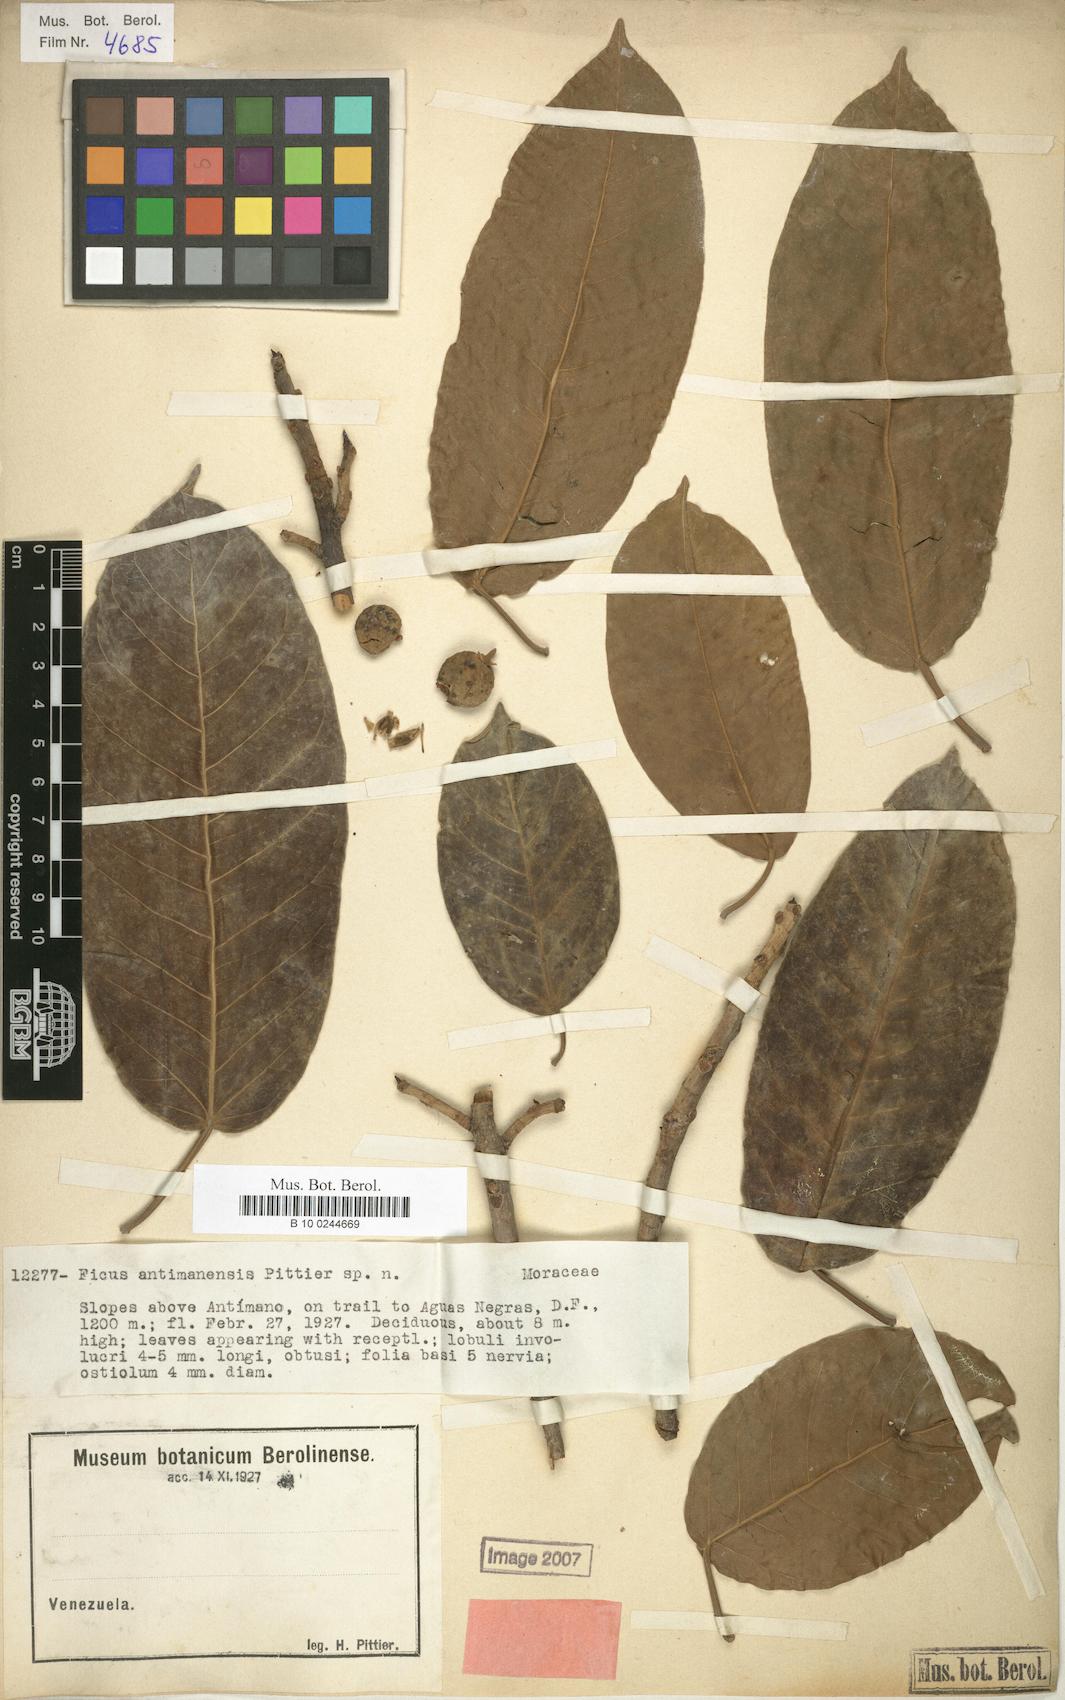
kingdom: Plantae
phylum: Tracheophyta
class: Magnoliopsida
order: Rosales
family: Moraceae
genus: Ficus
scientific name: Ficus citrifolia
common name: Strangler fig
